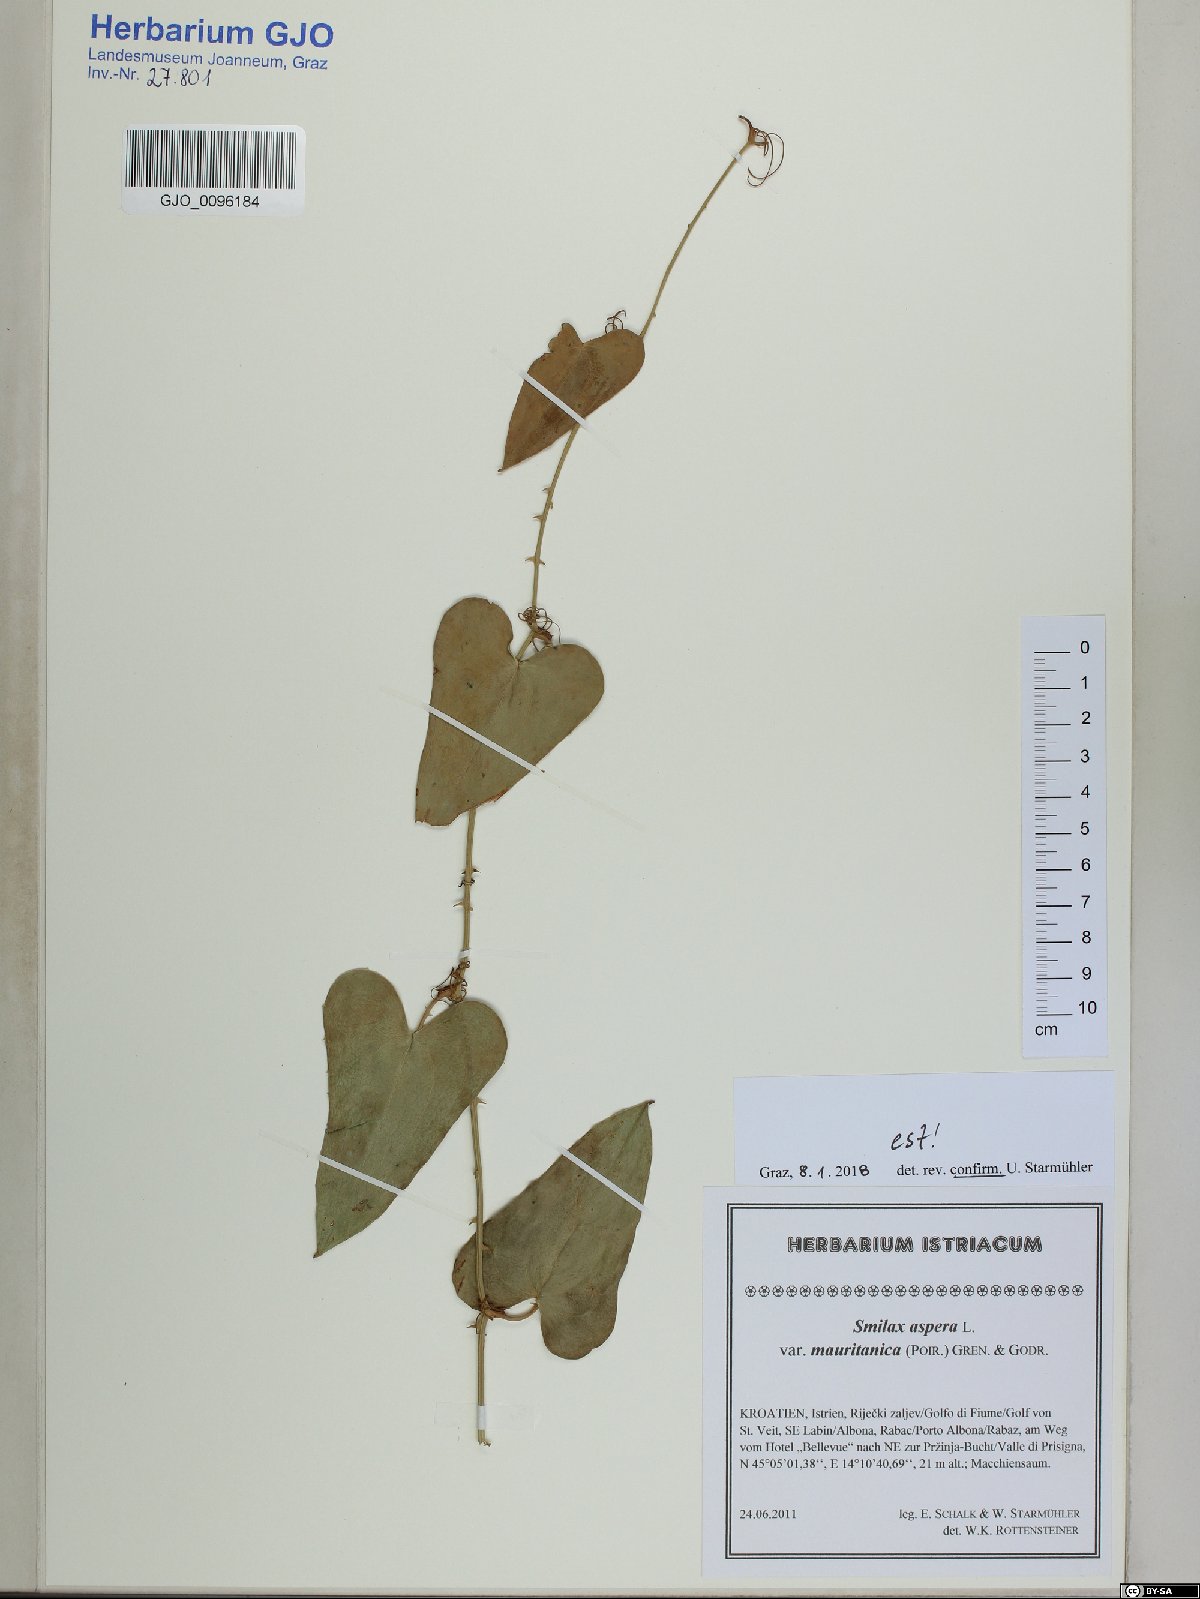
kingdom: Plantae
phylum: Tracheophyta
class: Liliopsida
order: Liliales
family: Smilacaceae
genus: Smilax
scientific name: Smilax aspera
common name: Common smilax
